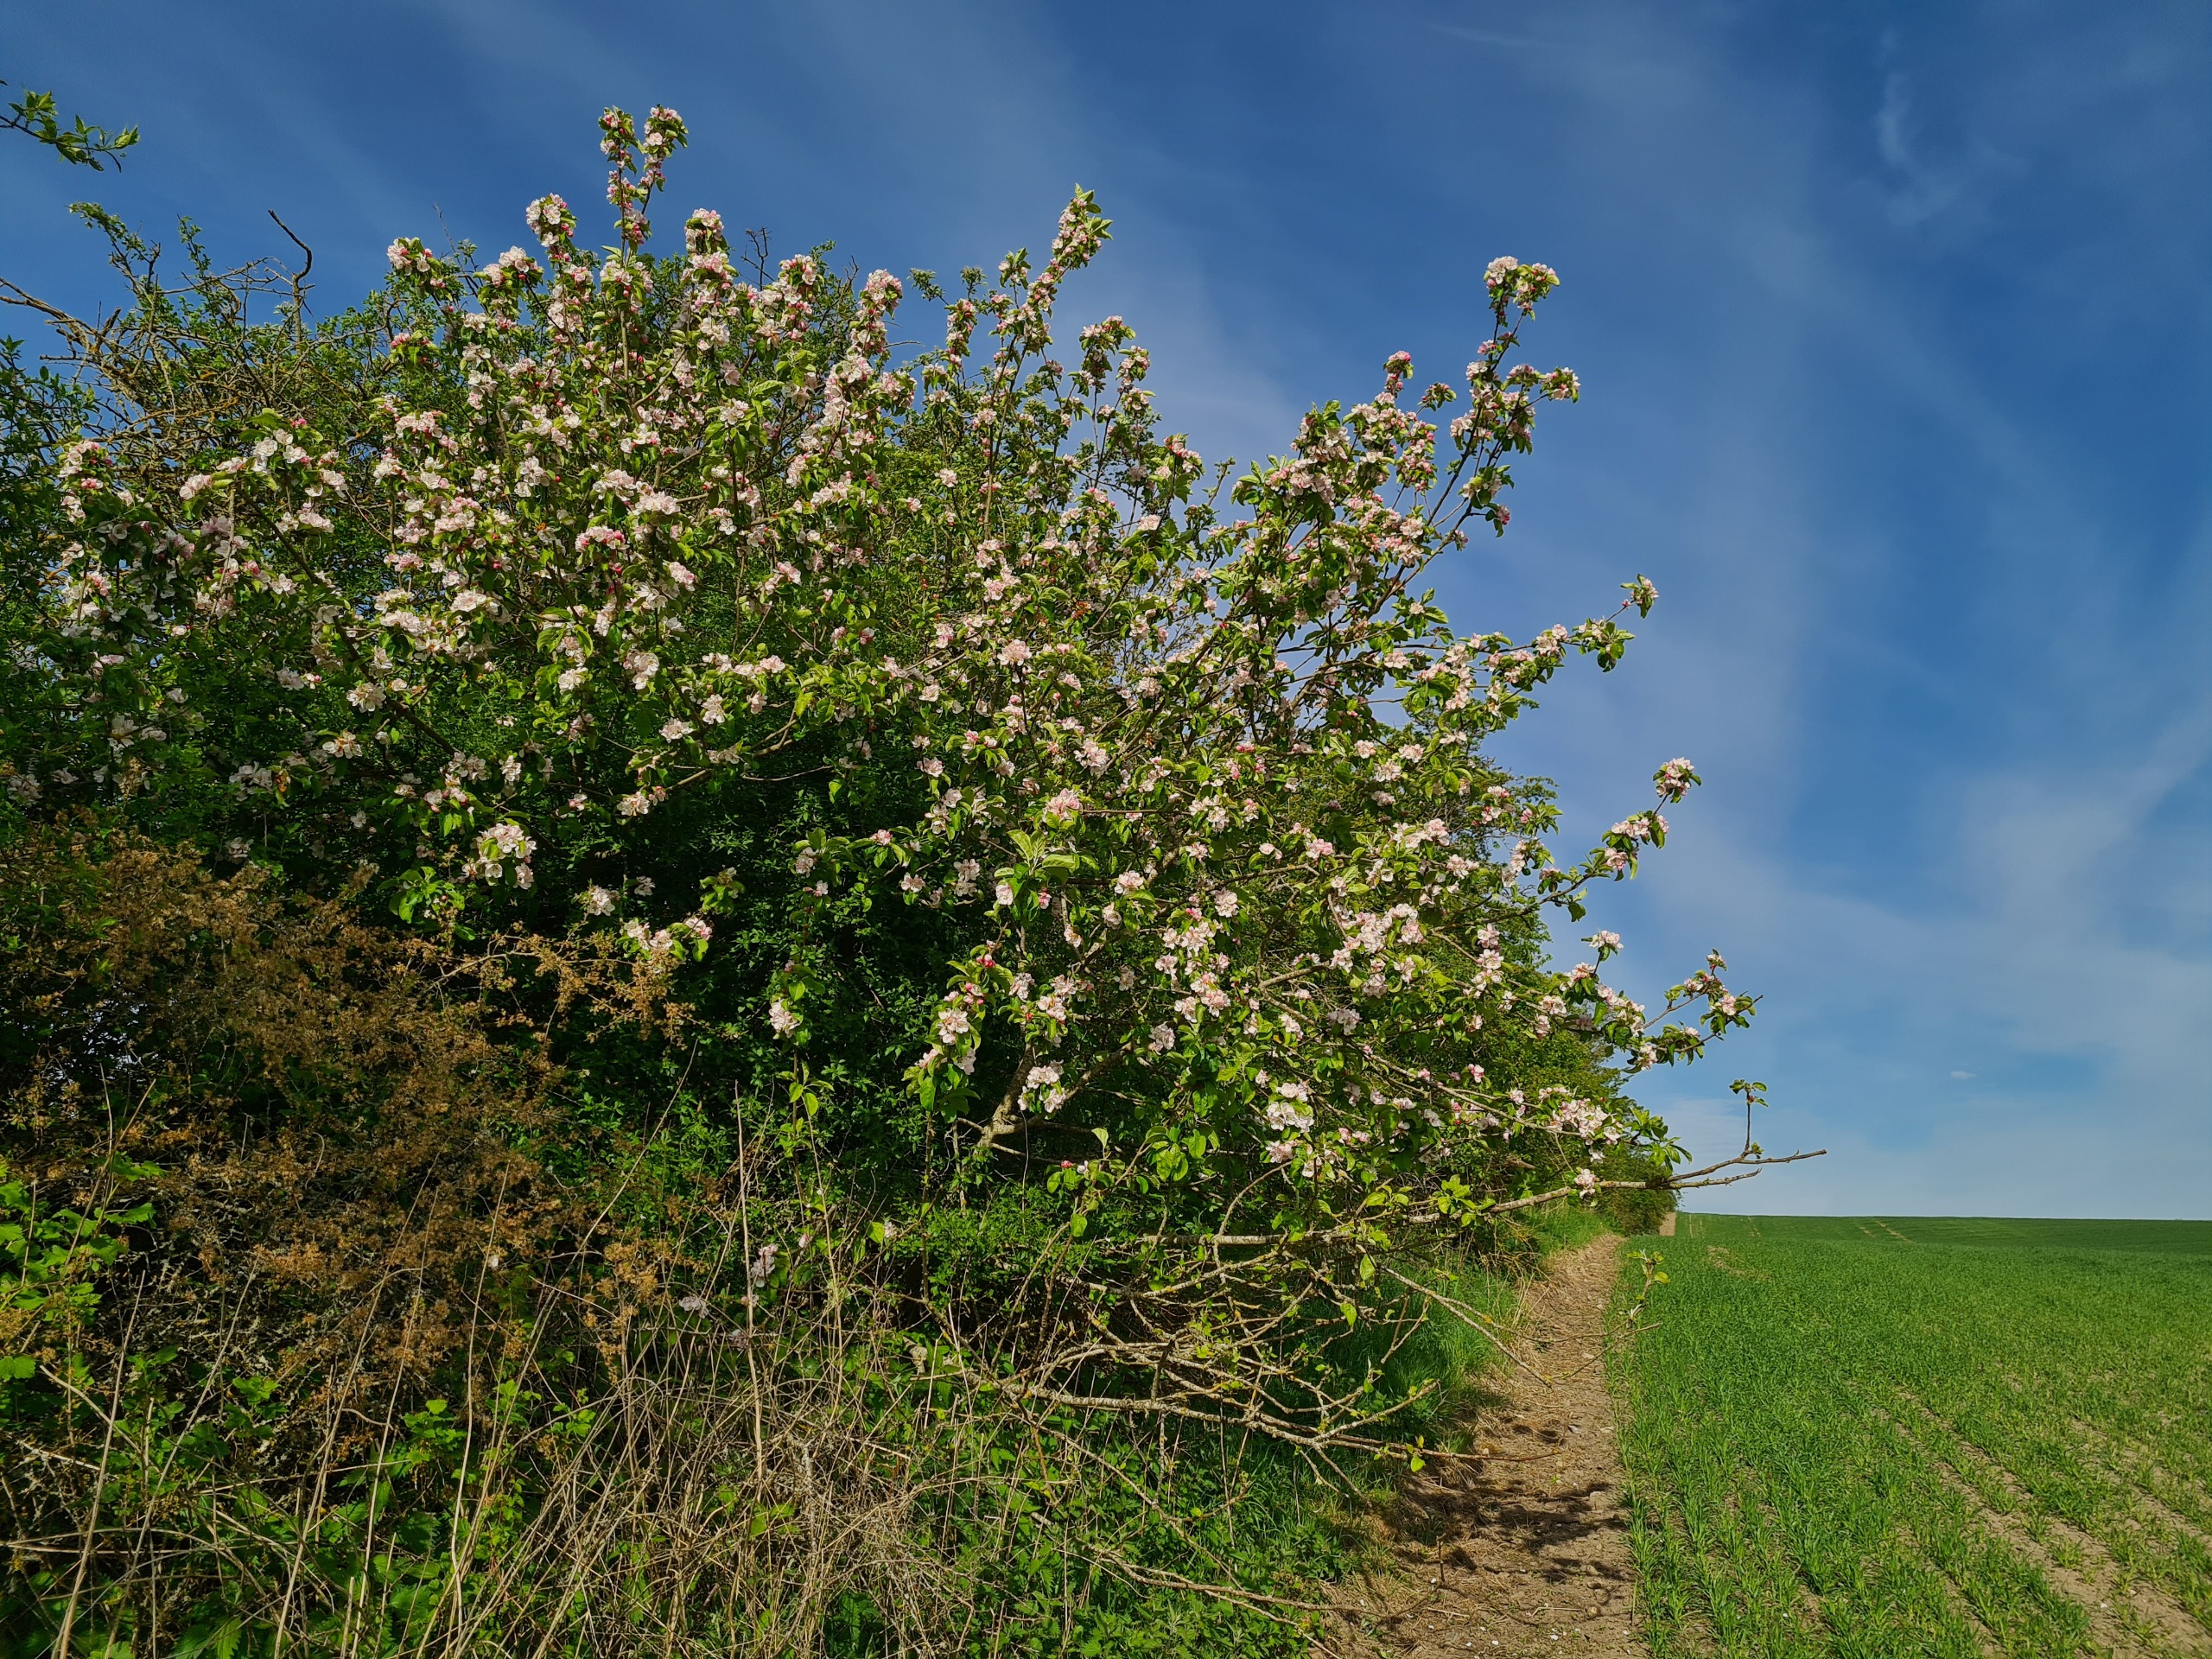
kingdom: Plantae
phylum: Tracheophyta
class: Magnoliopsida
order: Rosales
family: Rosaceae
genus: Malus
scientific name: Malus
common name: Sød-æble × skov-æble
